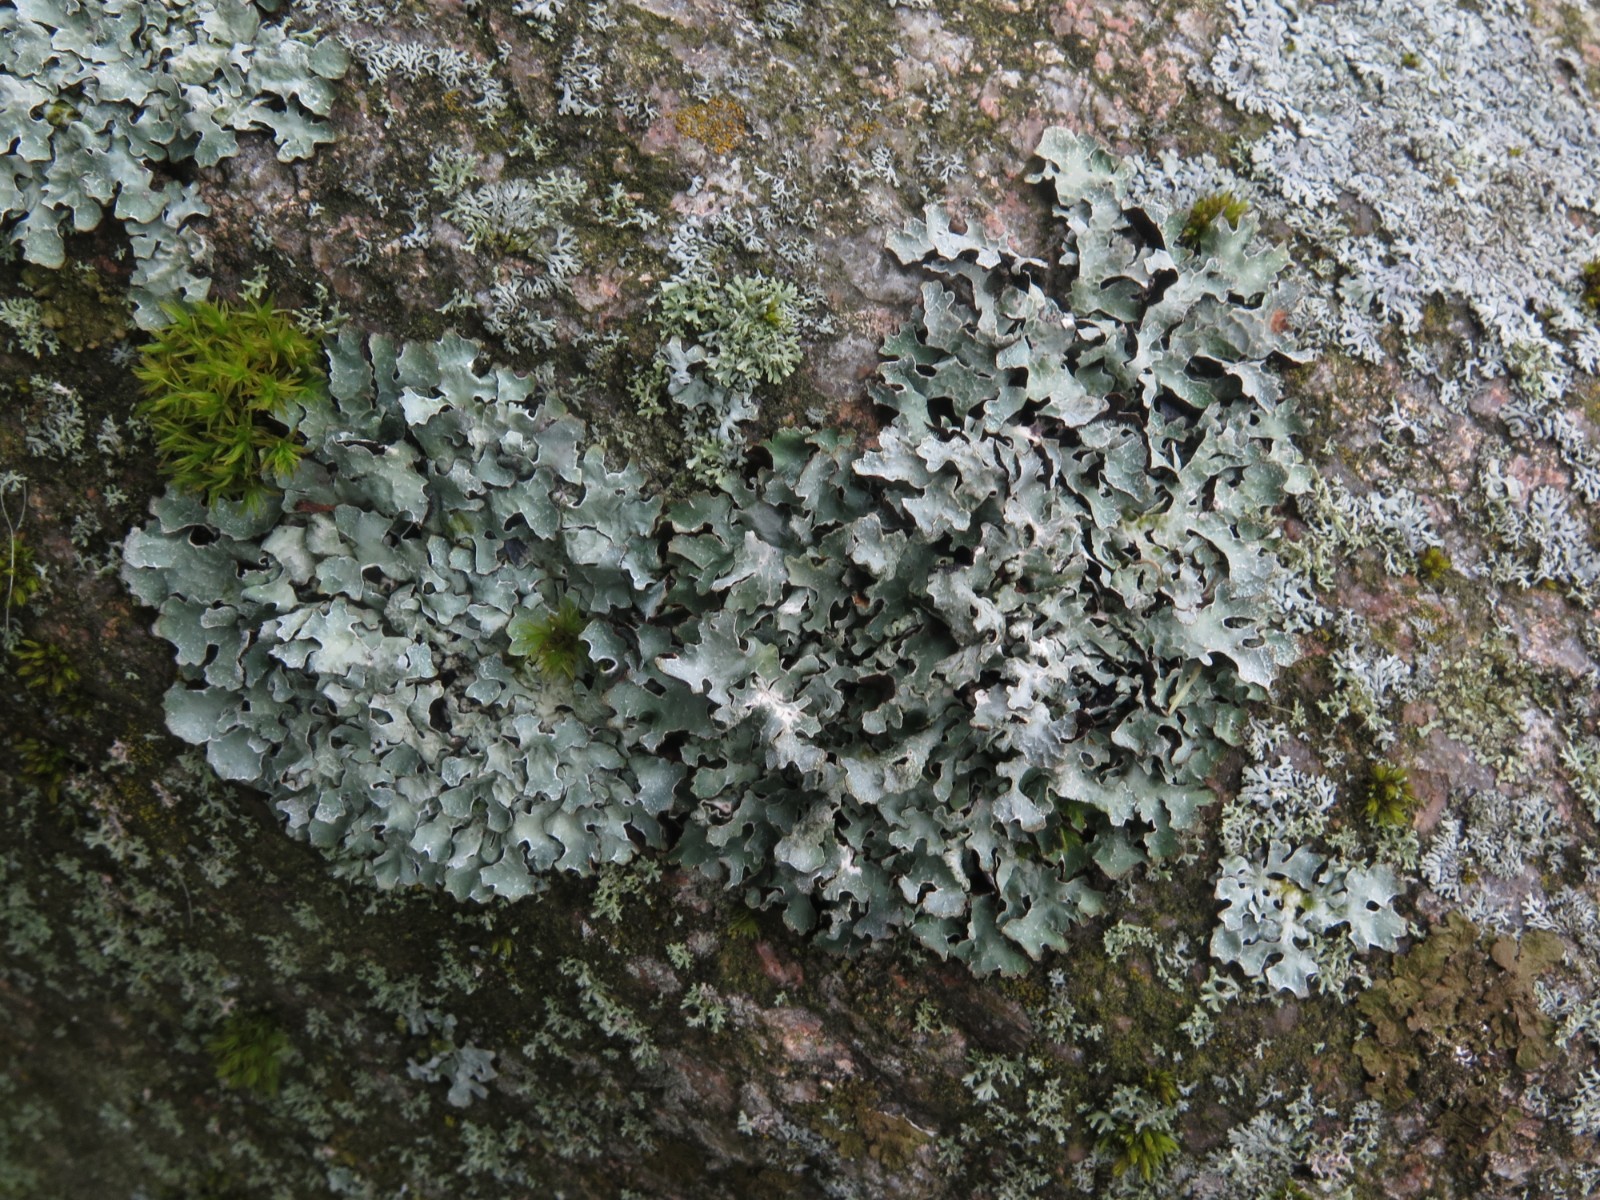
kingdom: Fungi
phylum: Ascomycota
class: Lecanoromycetes
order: Lecanorales
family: Parmeliaceae
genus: Parmelia
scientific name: Parmelia sulcata
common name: rynket skållav
